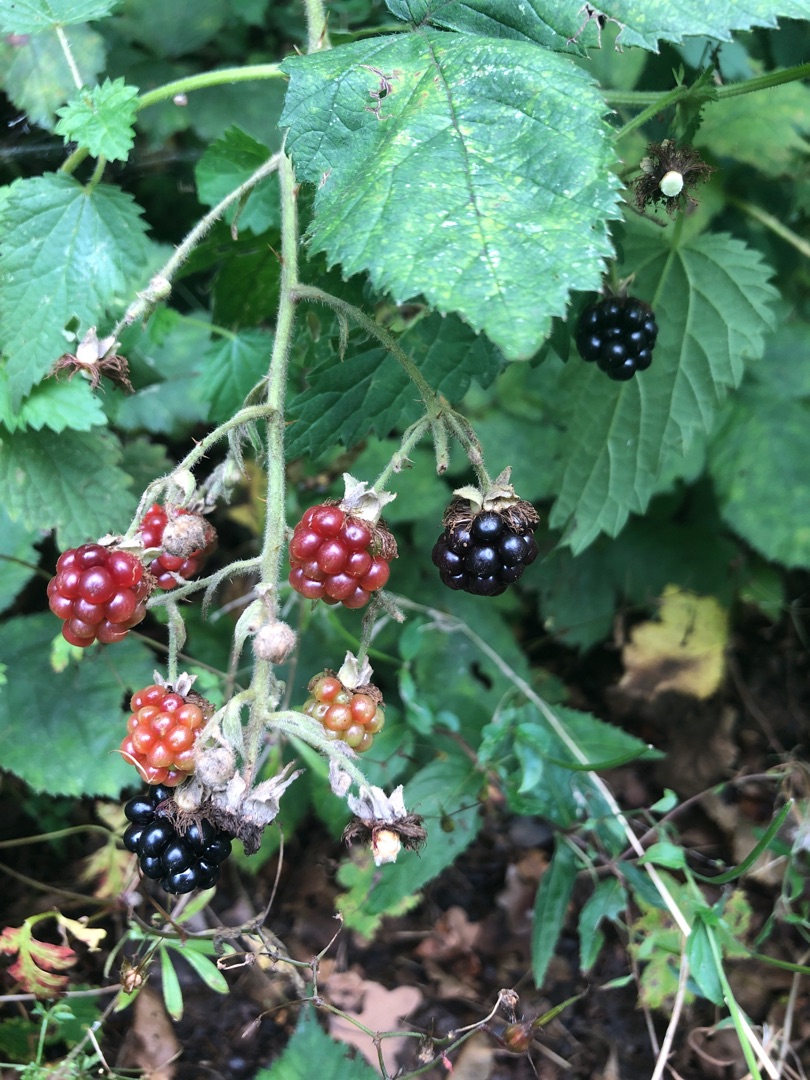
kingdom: Plantae
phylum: Tracheophyta
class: Magnoliopsida
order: Rosales
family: Rosaceae
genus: Rubus
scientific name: Rubus
